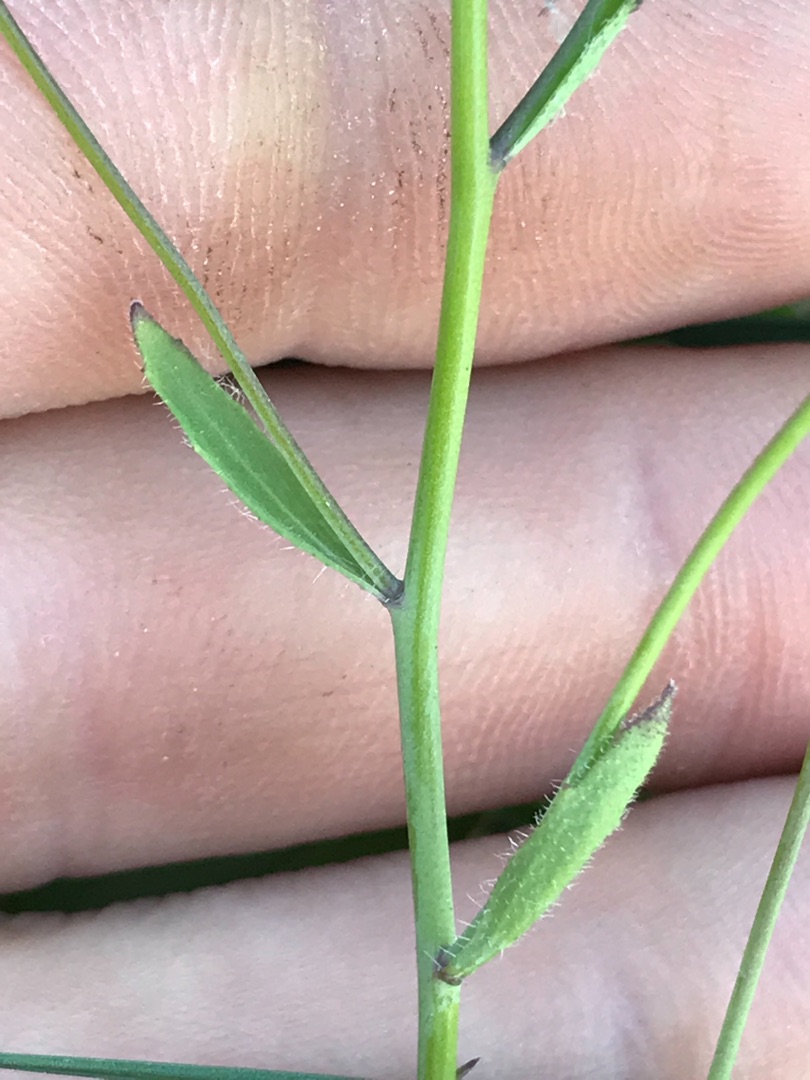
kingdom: Plantae
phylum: Tracheophyta
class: Magnoliopsida
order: Brassicales
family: Brassicaceae
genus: Arabidopsis
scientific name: Arabidopsis thaliana
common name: Almindelig gåsemad
